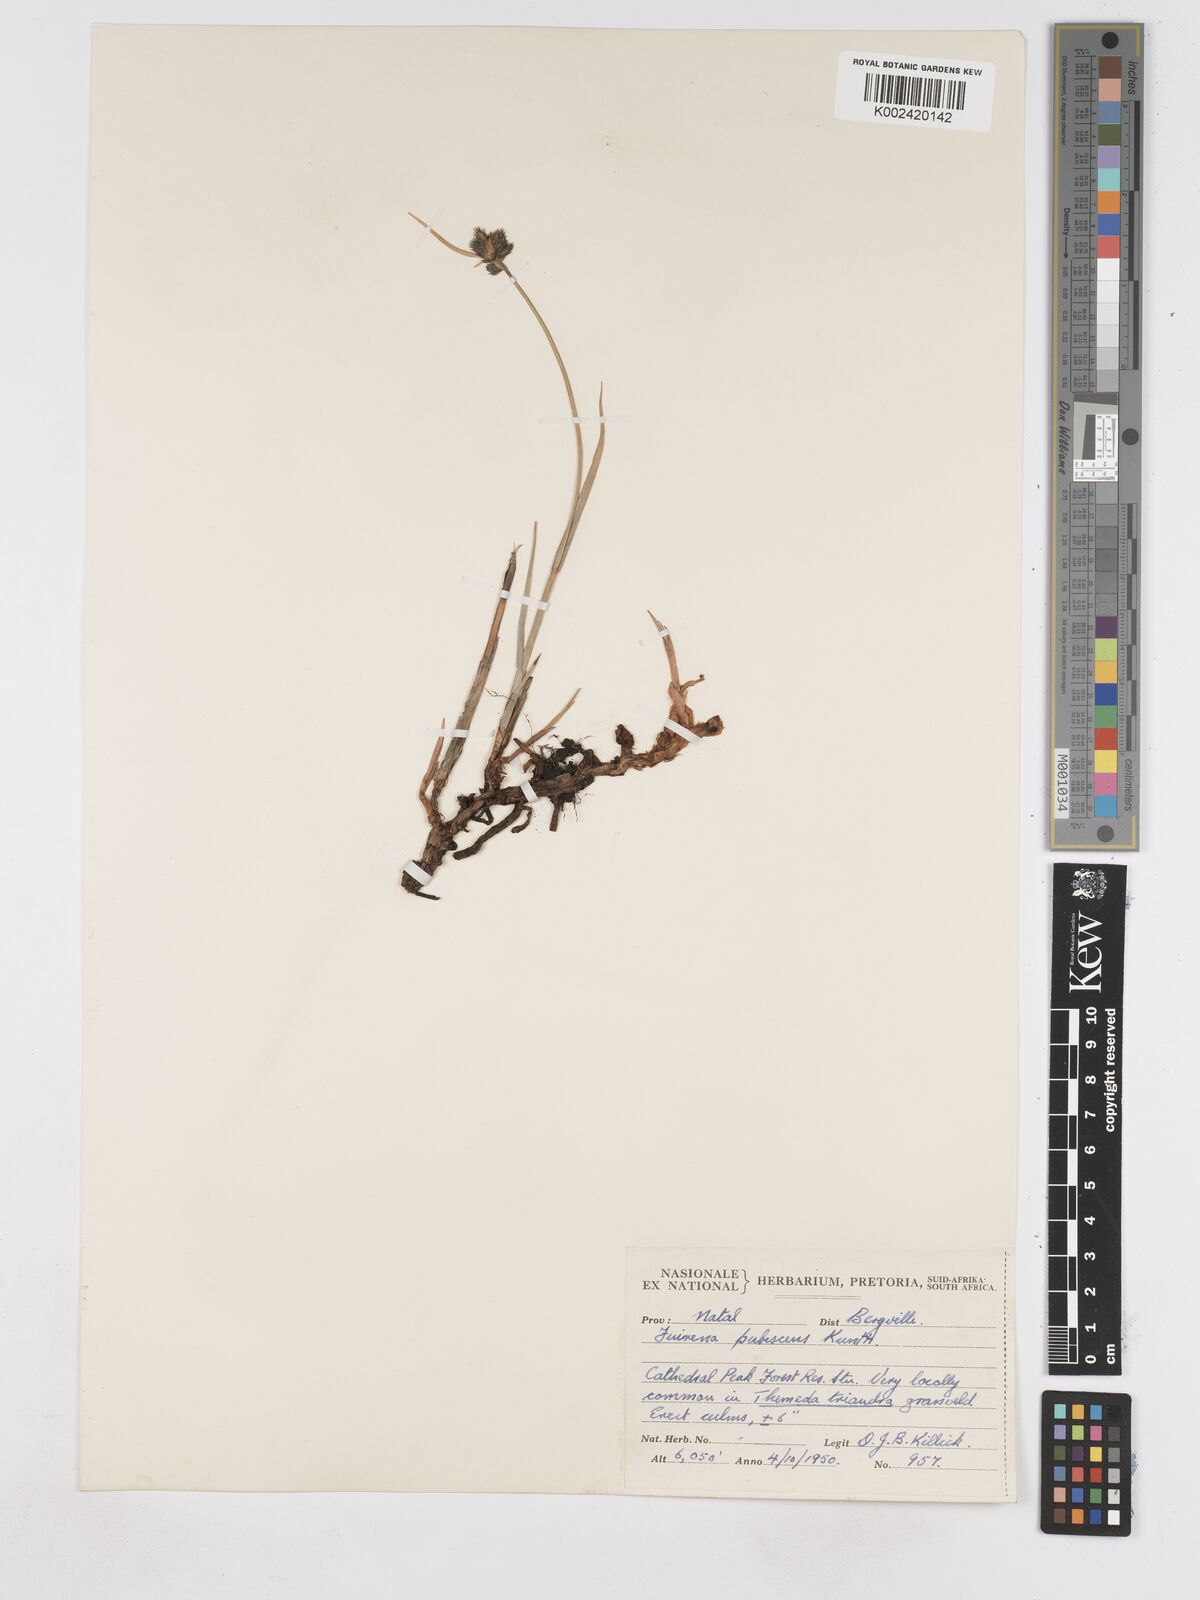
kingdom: Plantae
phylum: Tracheophyta
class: Liliopsida
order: Poales
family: Cyperaceae
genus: Fuirena
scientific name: Fuirena pubescens
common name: Hairy sedge
